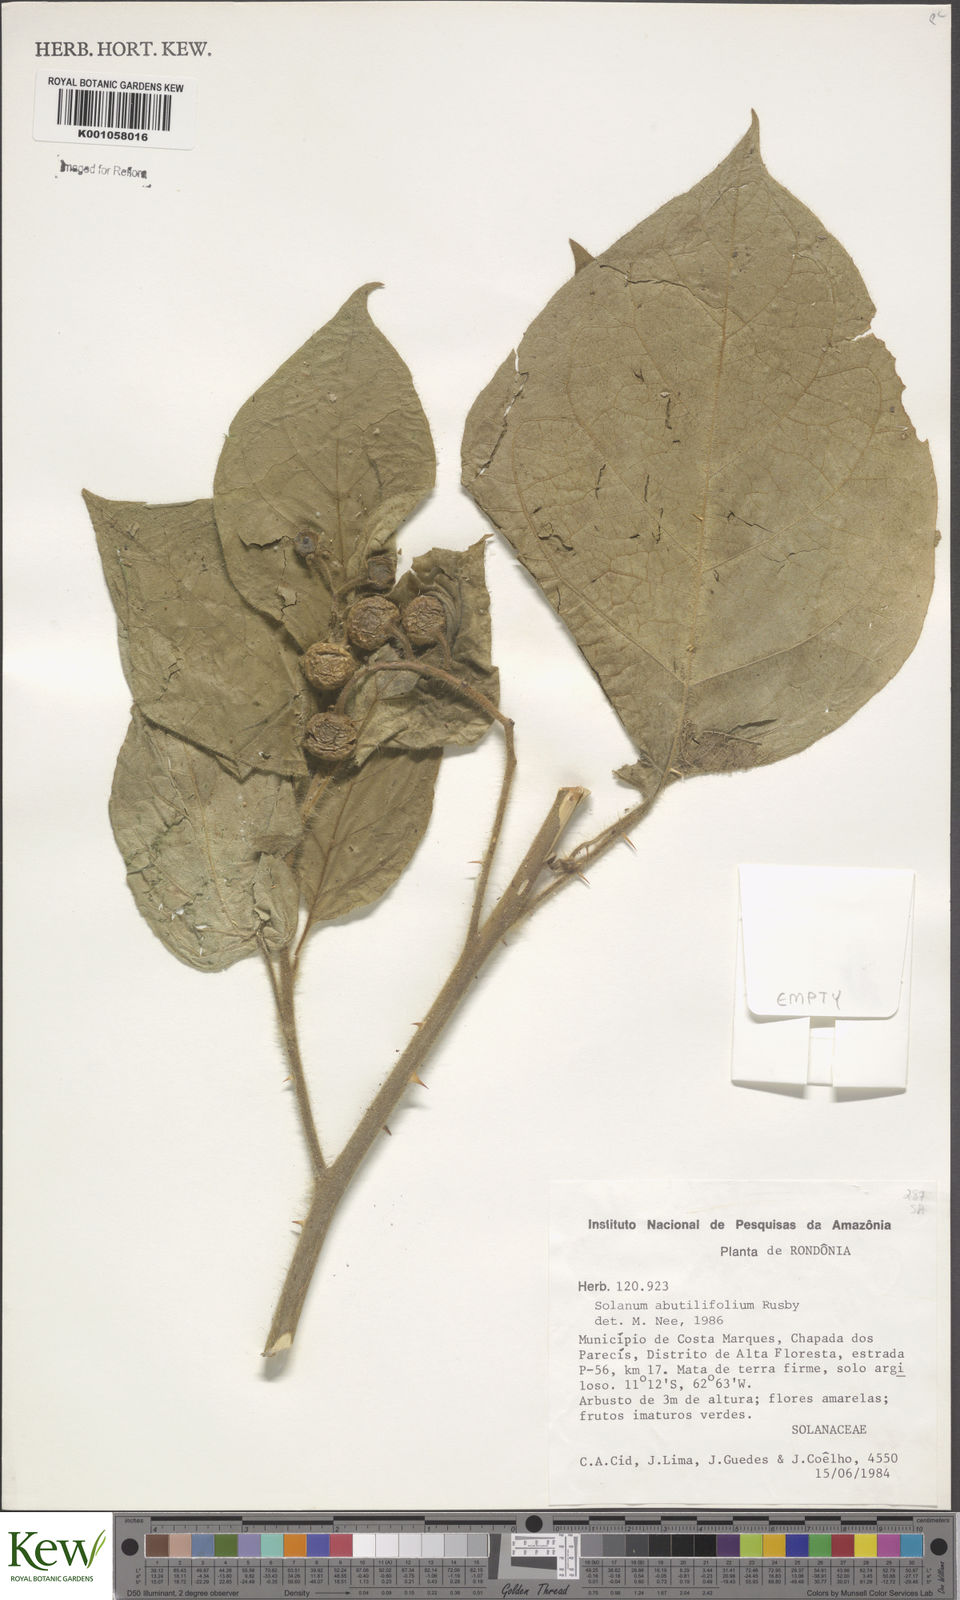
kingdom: Plantae
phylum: Tracheophyta
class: Magnoliopsida
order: Solanales
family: Solanaceae
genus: Solanum
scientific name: Solanum abutilifolium
